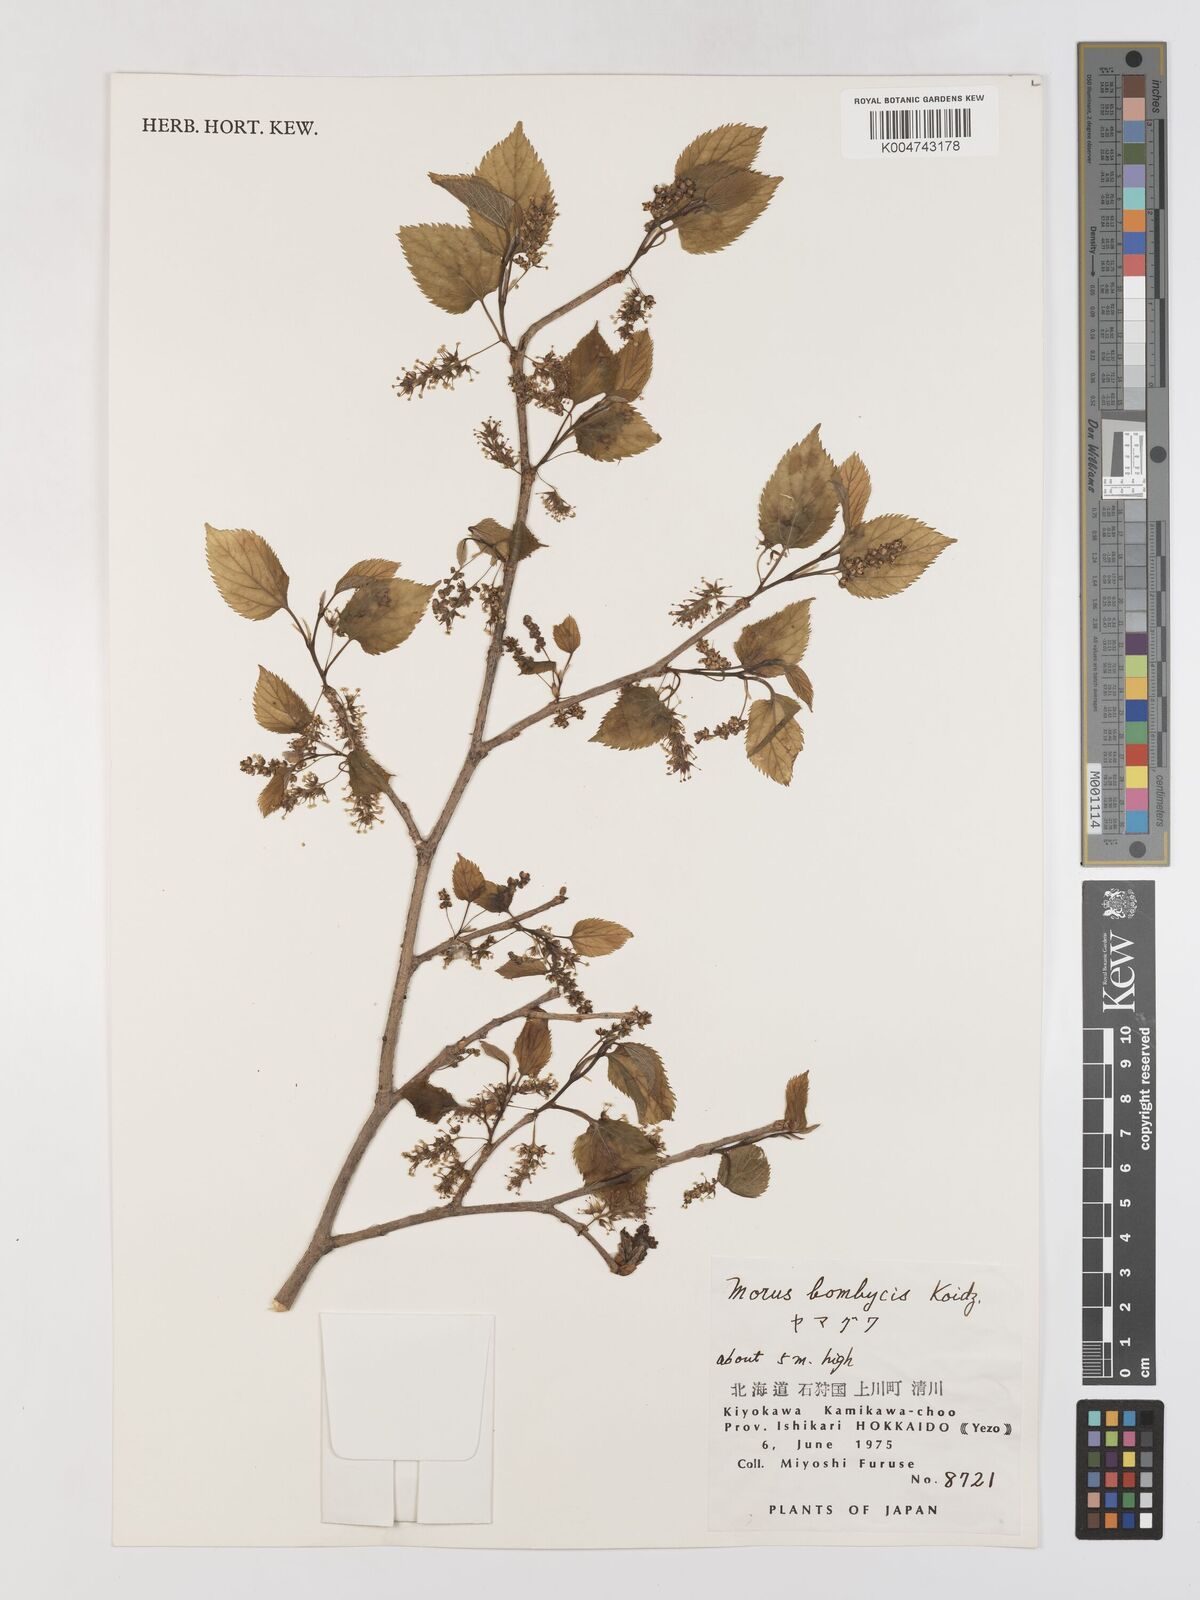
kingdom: Plantae
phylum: Tracheophyta
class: Magnoliopsida
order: Rosales
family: Moraceae
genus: Morus
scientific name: Morus indica
